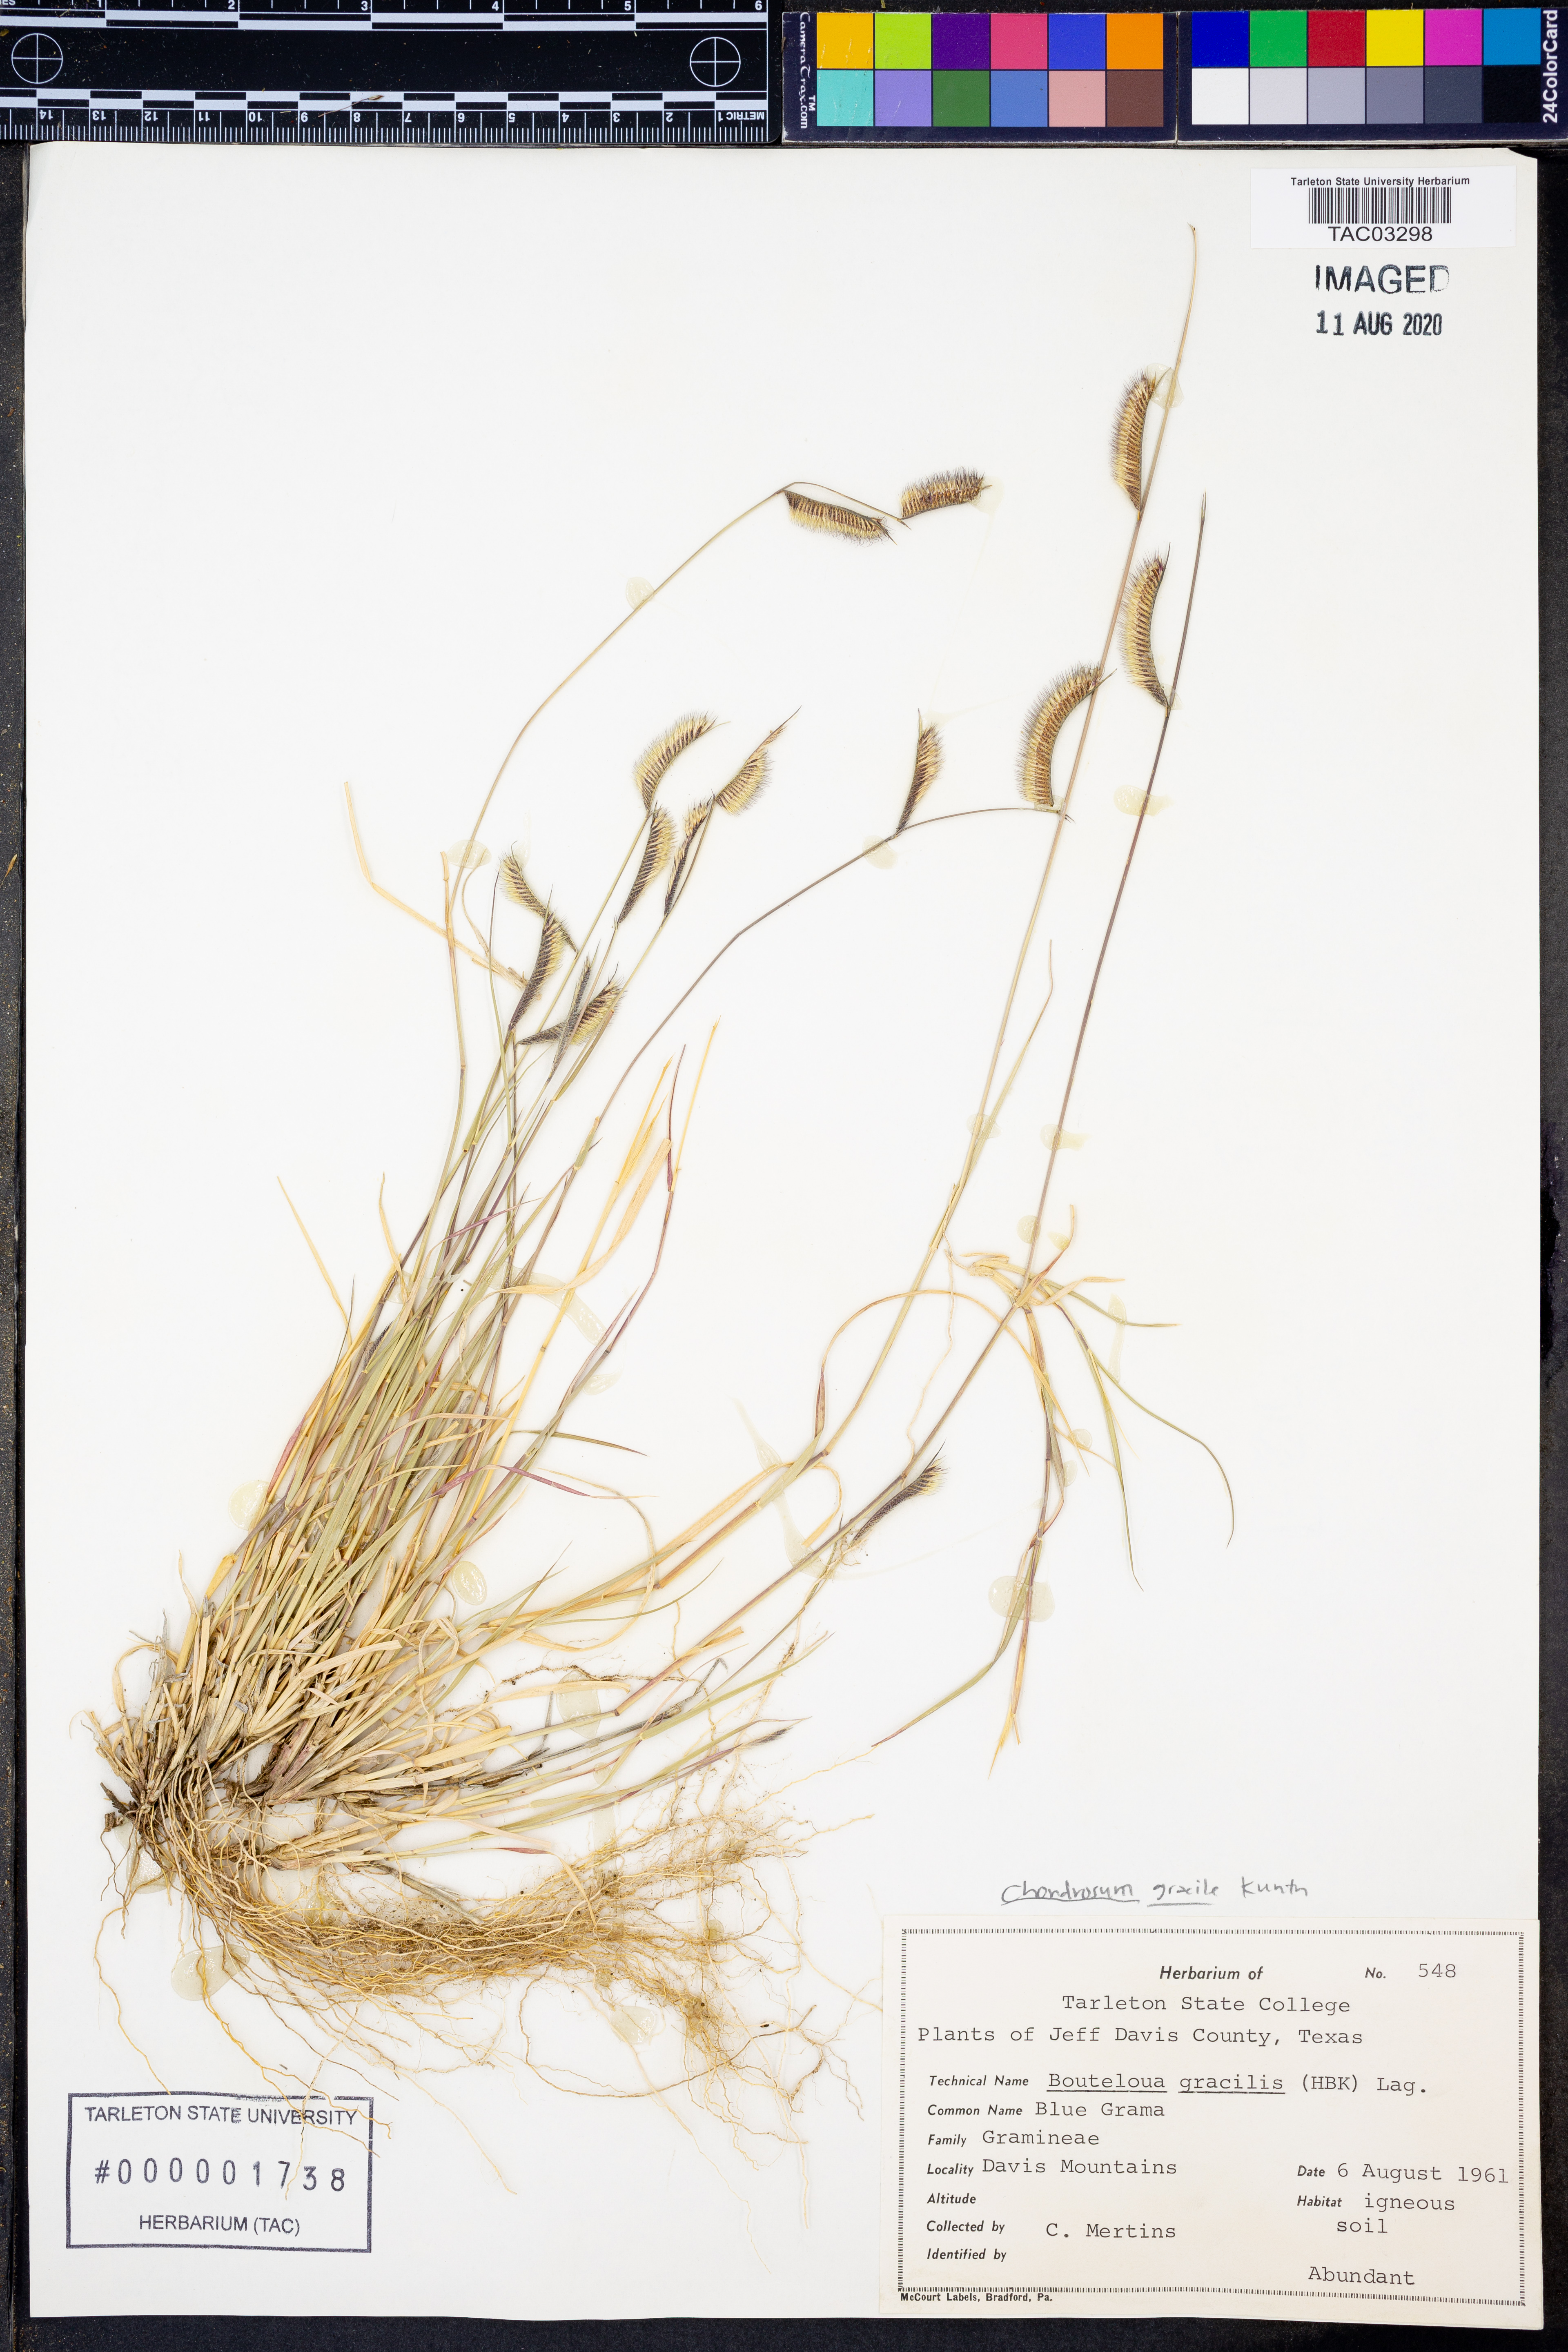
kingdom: Plantae
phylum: Tracheophyta
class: Liliopsida
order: Poales
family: Poaceae
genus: Bouteloua
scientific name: Bouteloua gracilis
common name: Blue grama
